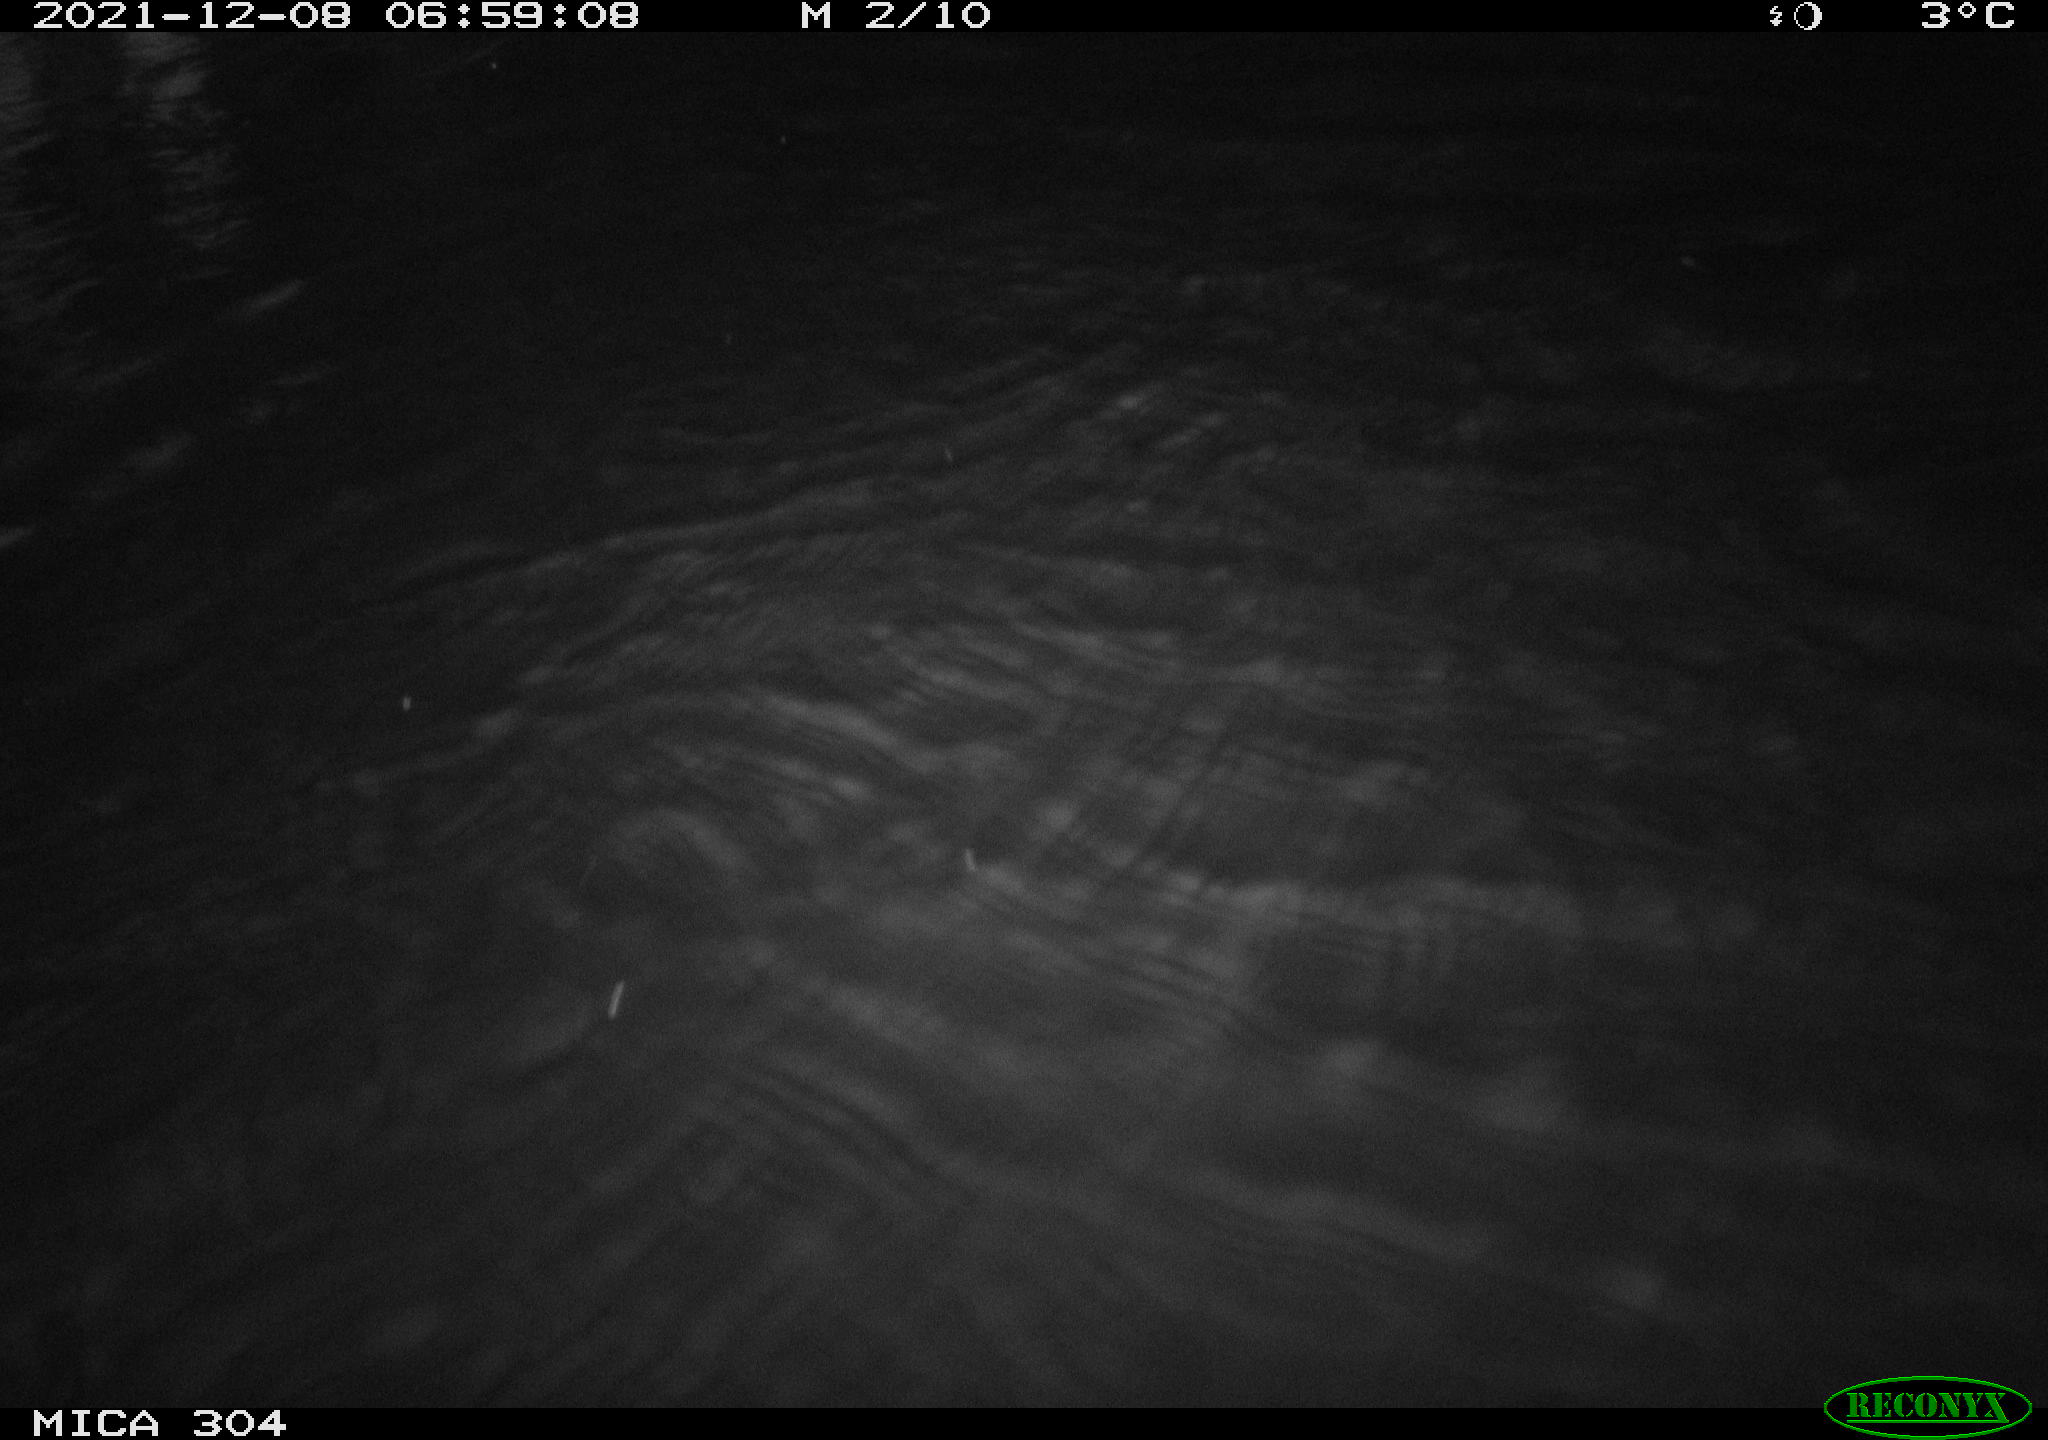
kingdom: Animalia
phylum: Chordata
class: Mammalia
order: Rodentia
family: Cricetidae
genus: Ondatra
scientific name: Ondatra zibethicus
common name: Muskrat
